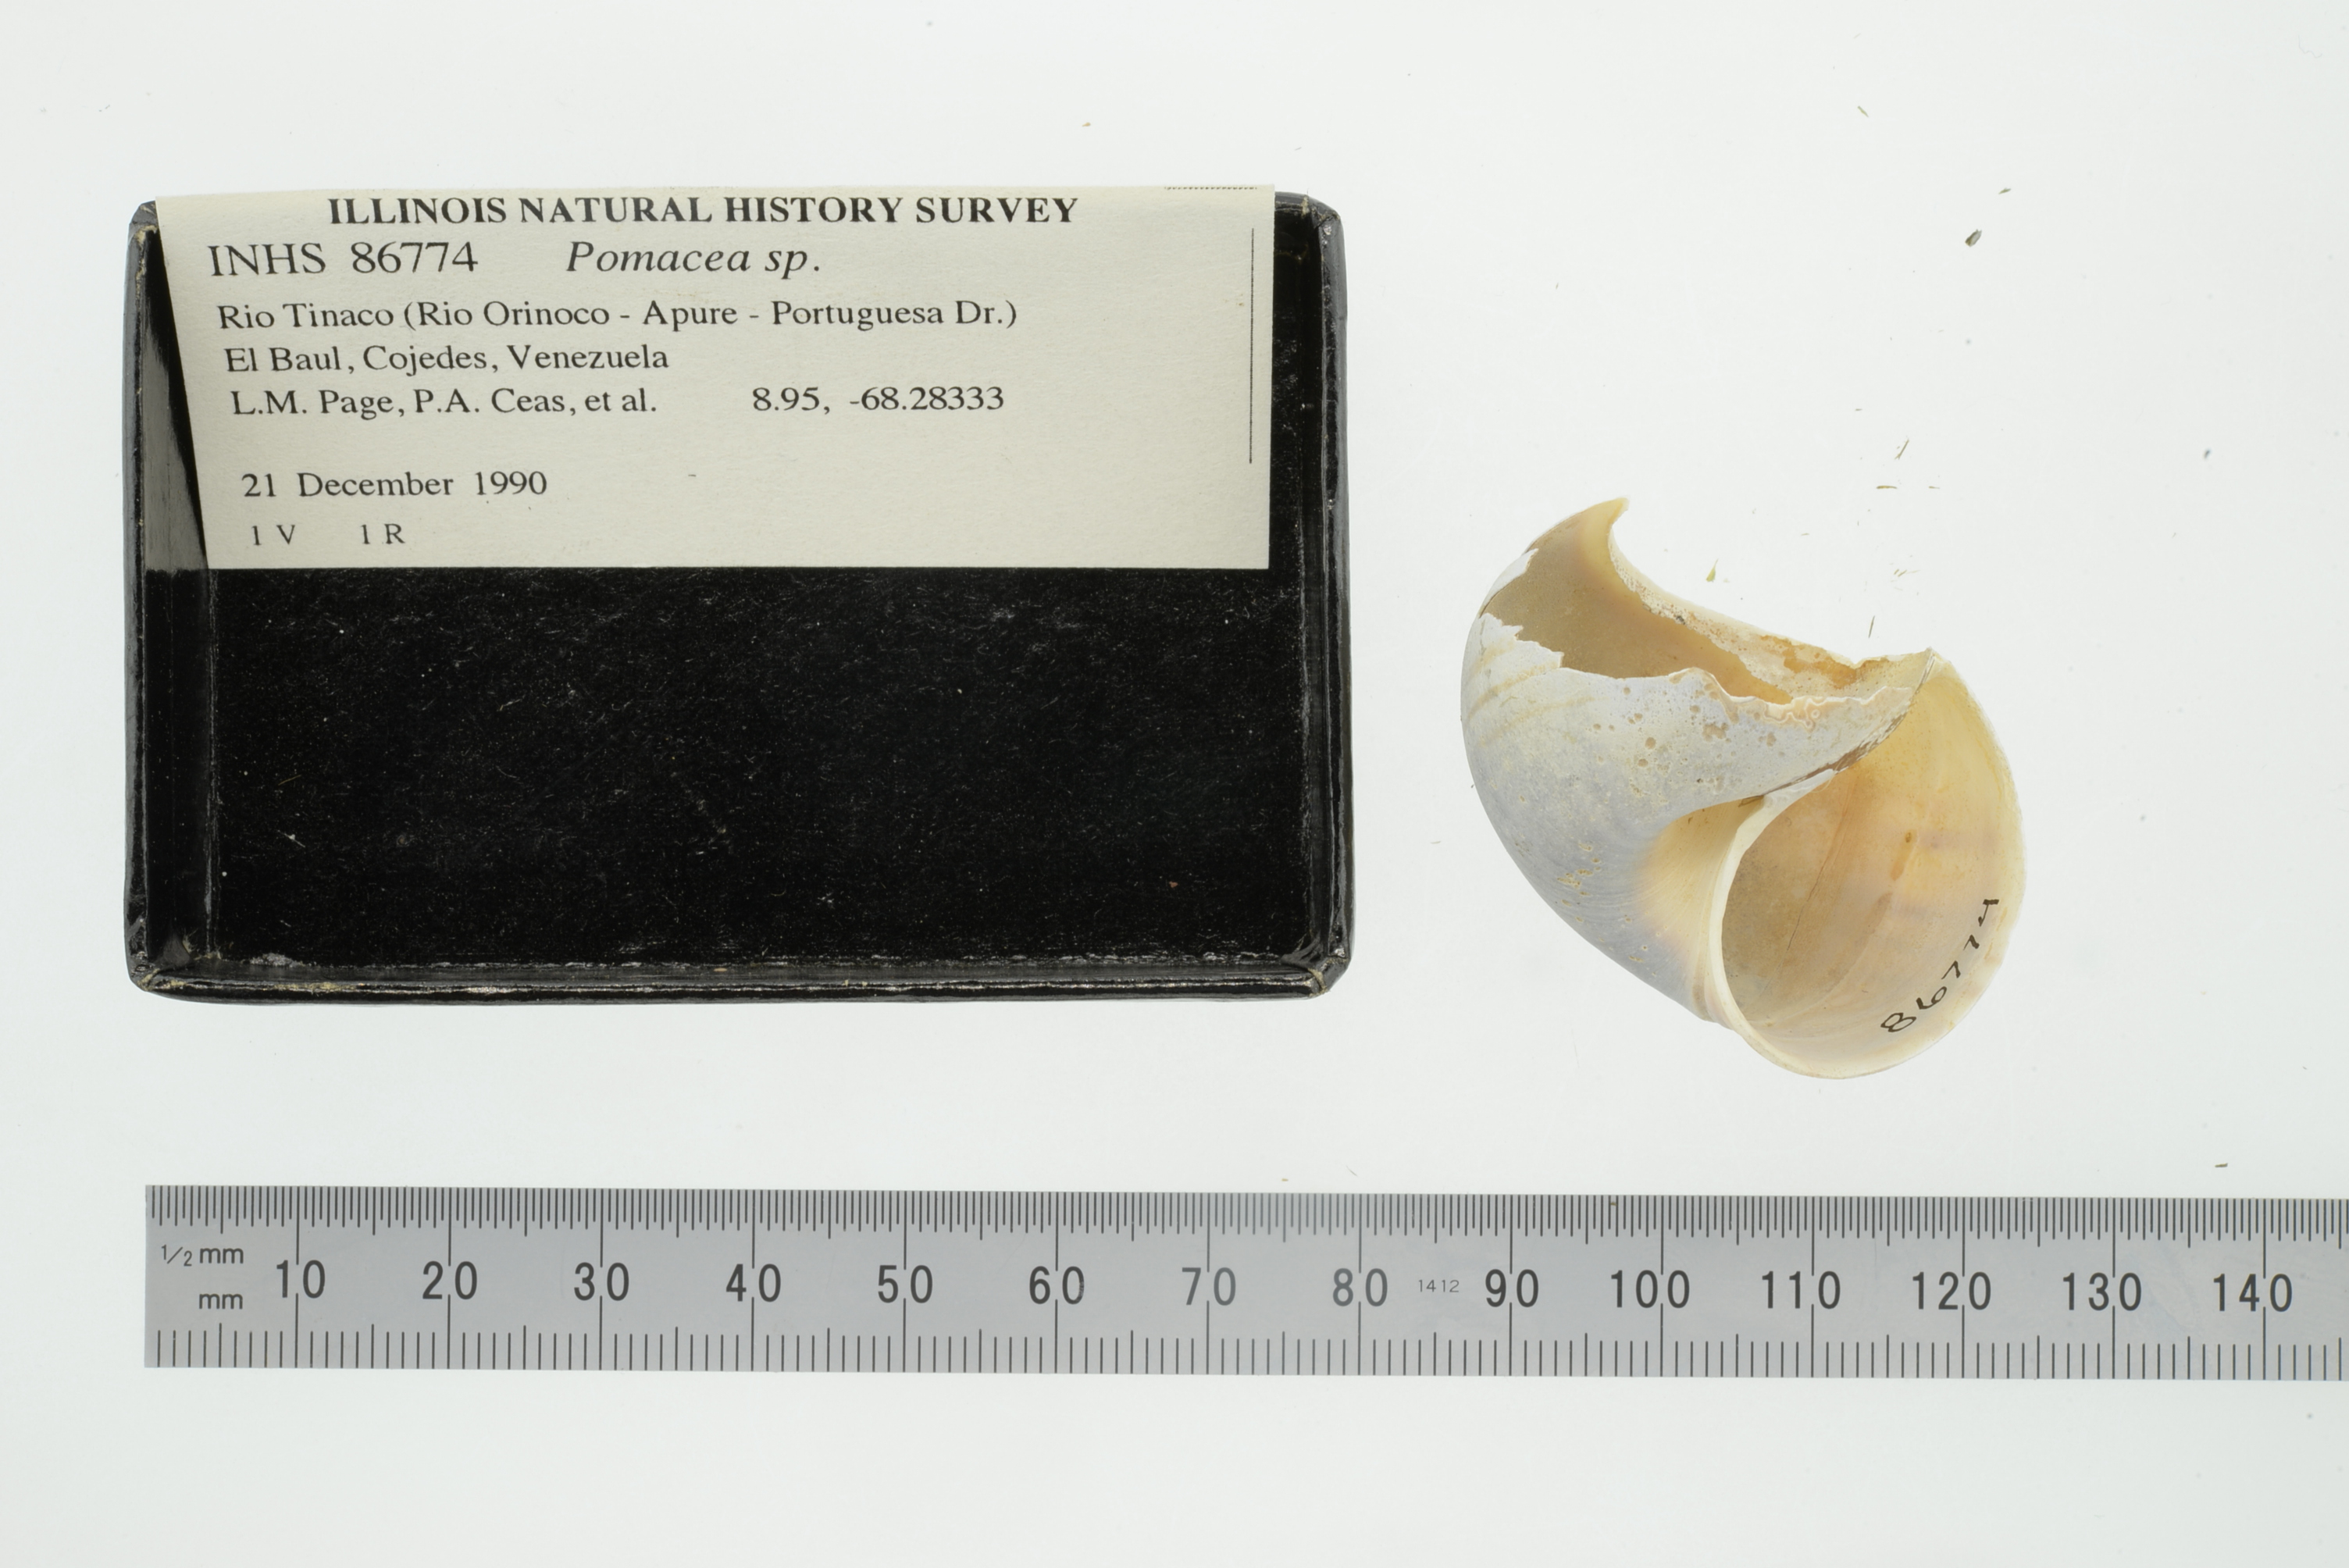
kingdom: Animalia
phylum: Mollusca
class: Gastropoda
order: Architaenioglossa
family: Ampullariidae
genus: Pomacea
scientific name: Pomacea
